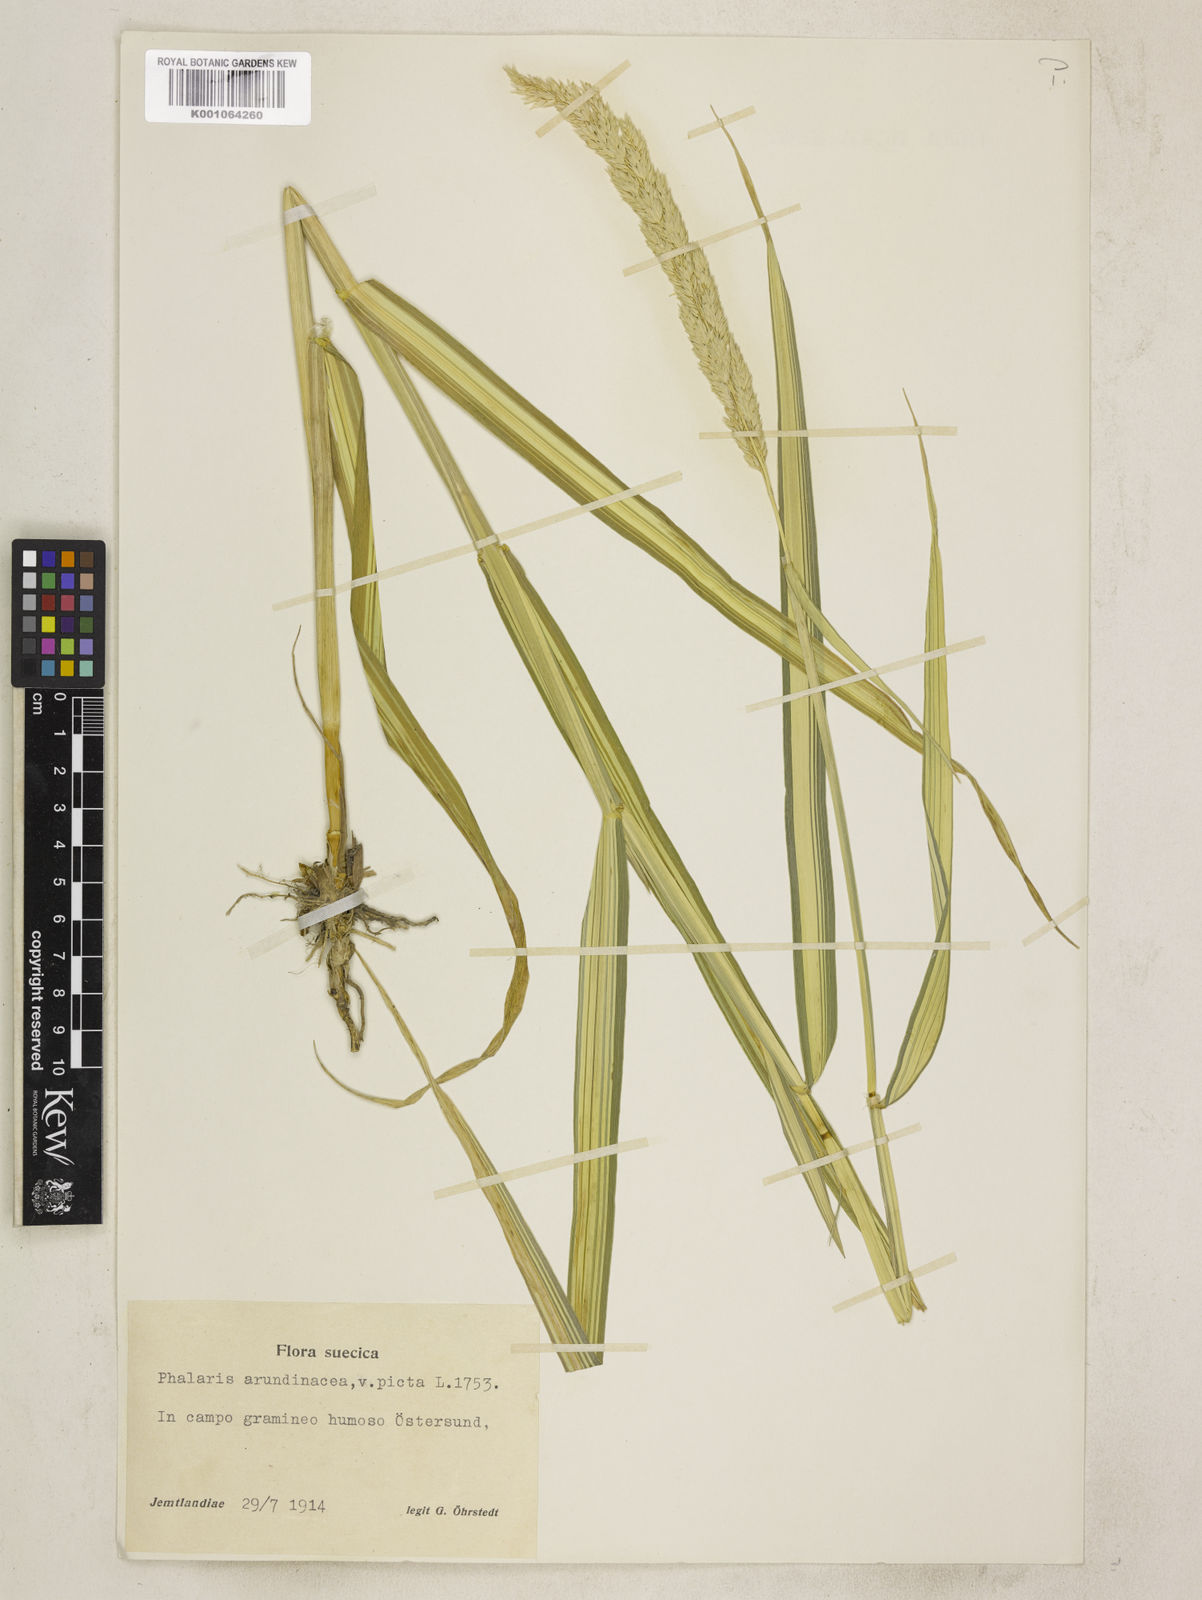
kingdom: Plantae
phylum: Tracheophyta
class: Liliopsida
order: Poales
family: Poaceae
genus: Phalaris
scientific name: Phalaris arundinacea
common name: Reed canary-grass
